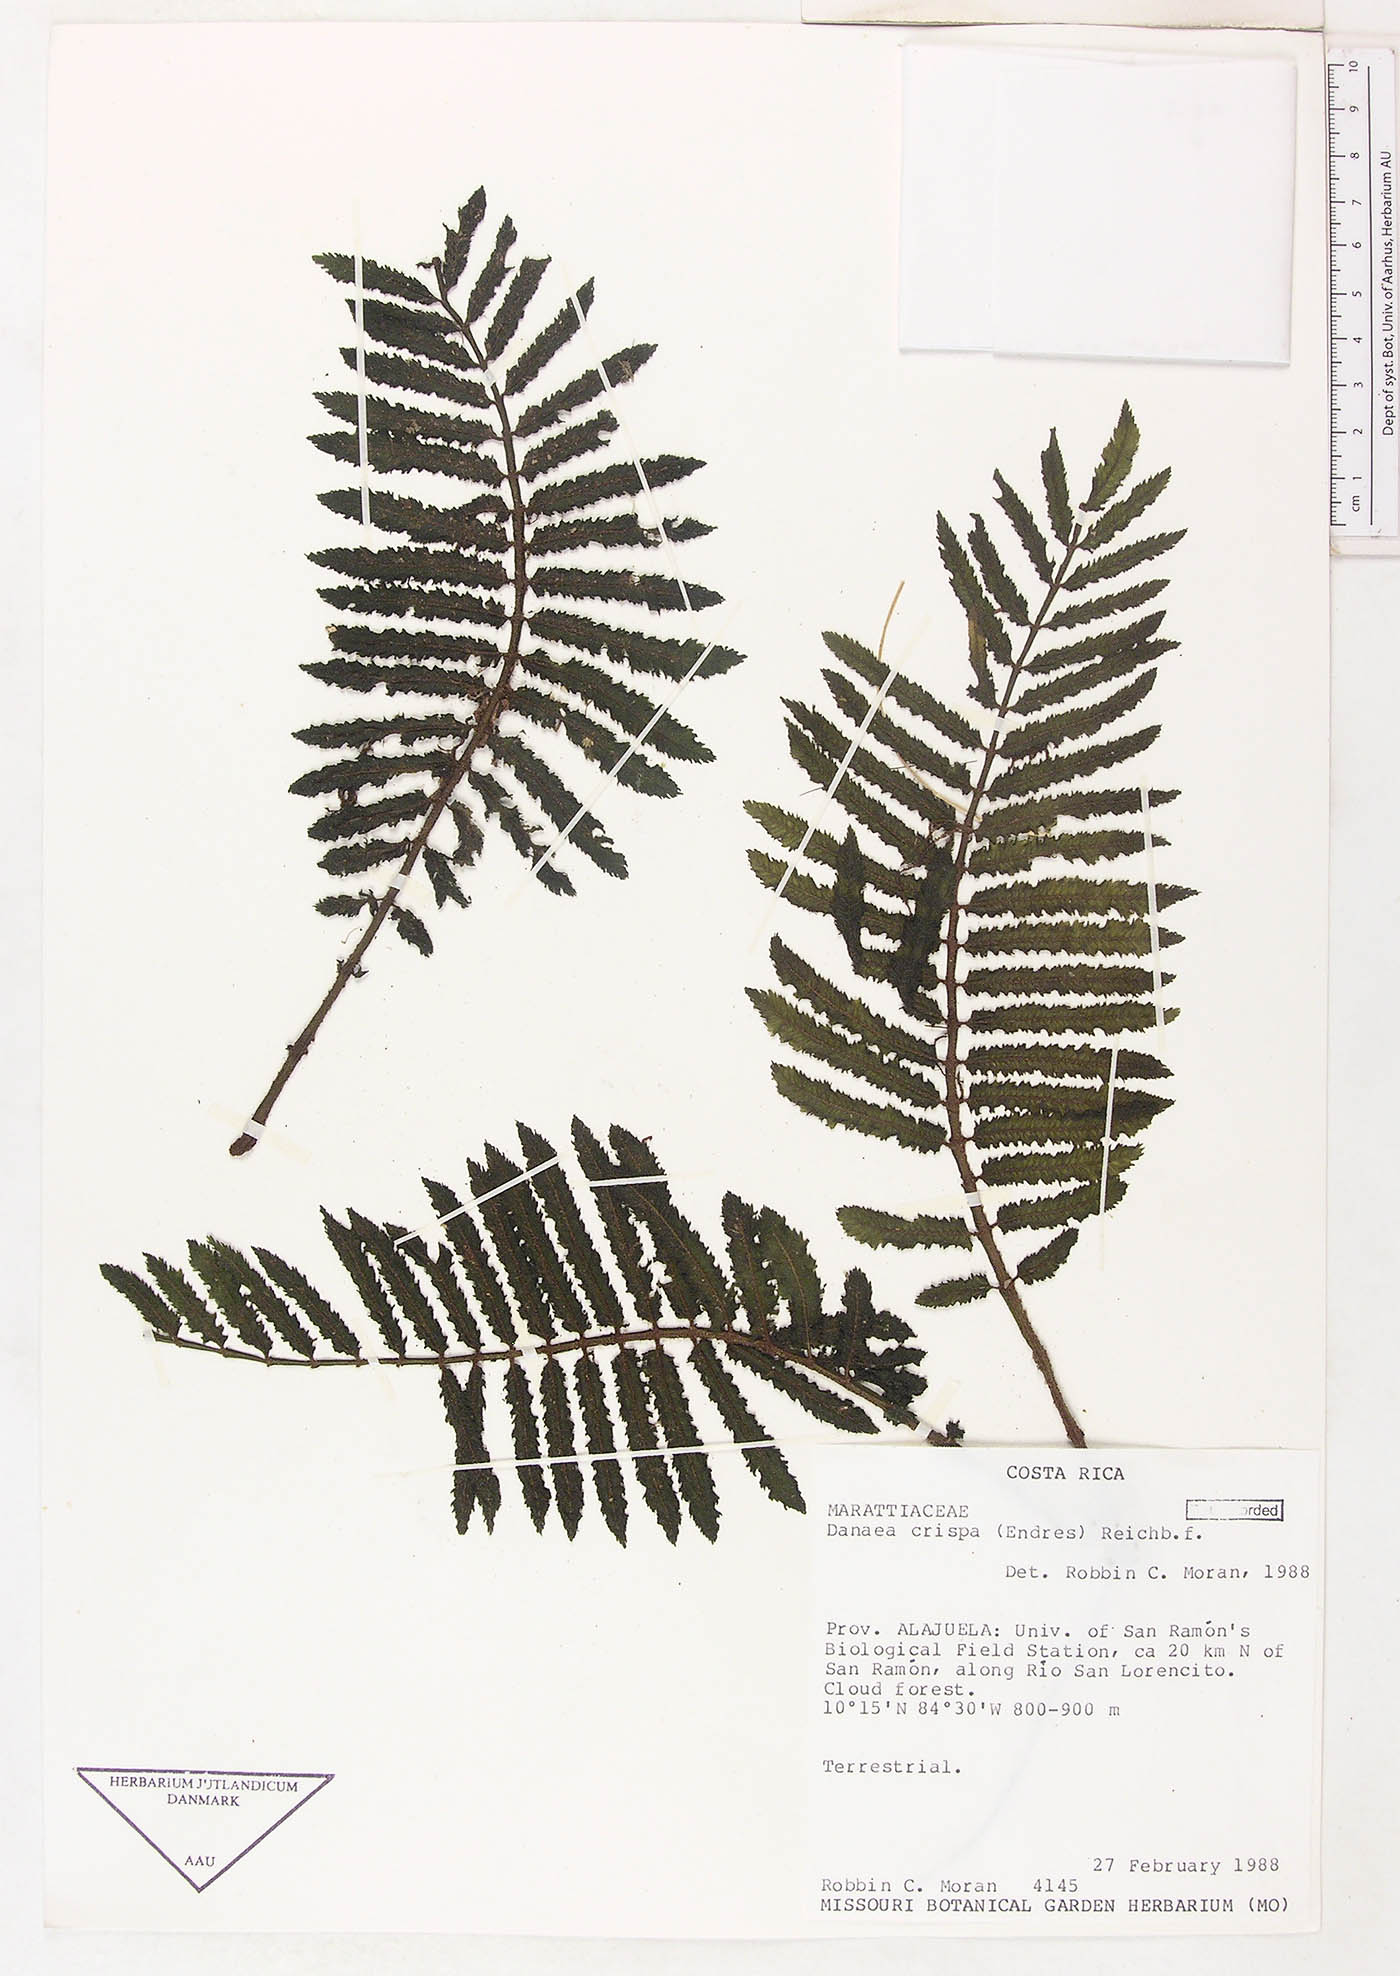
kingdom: Plantae
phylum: Tracheophyta
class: Polypodiopsida
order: Marattiales
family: Marattiaceae
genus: Danaea
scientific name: Danaea crispa
